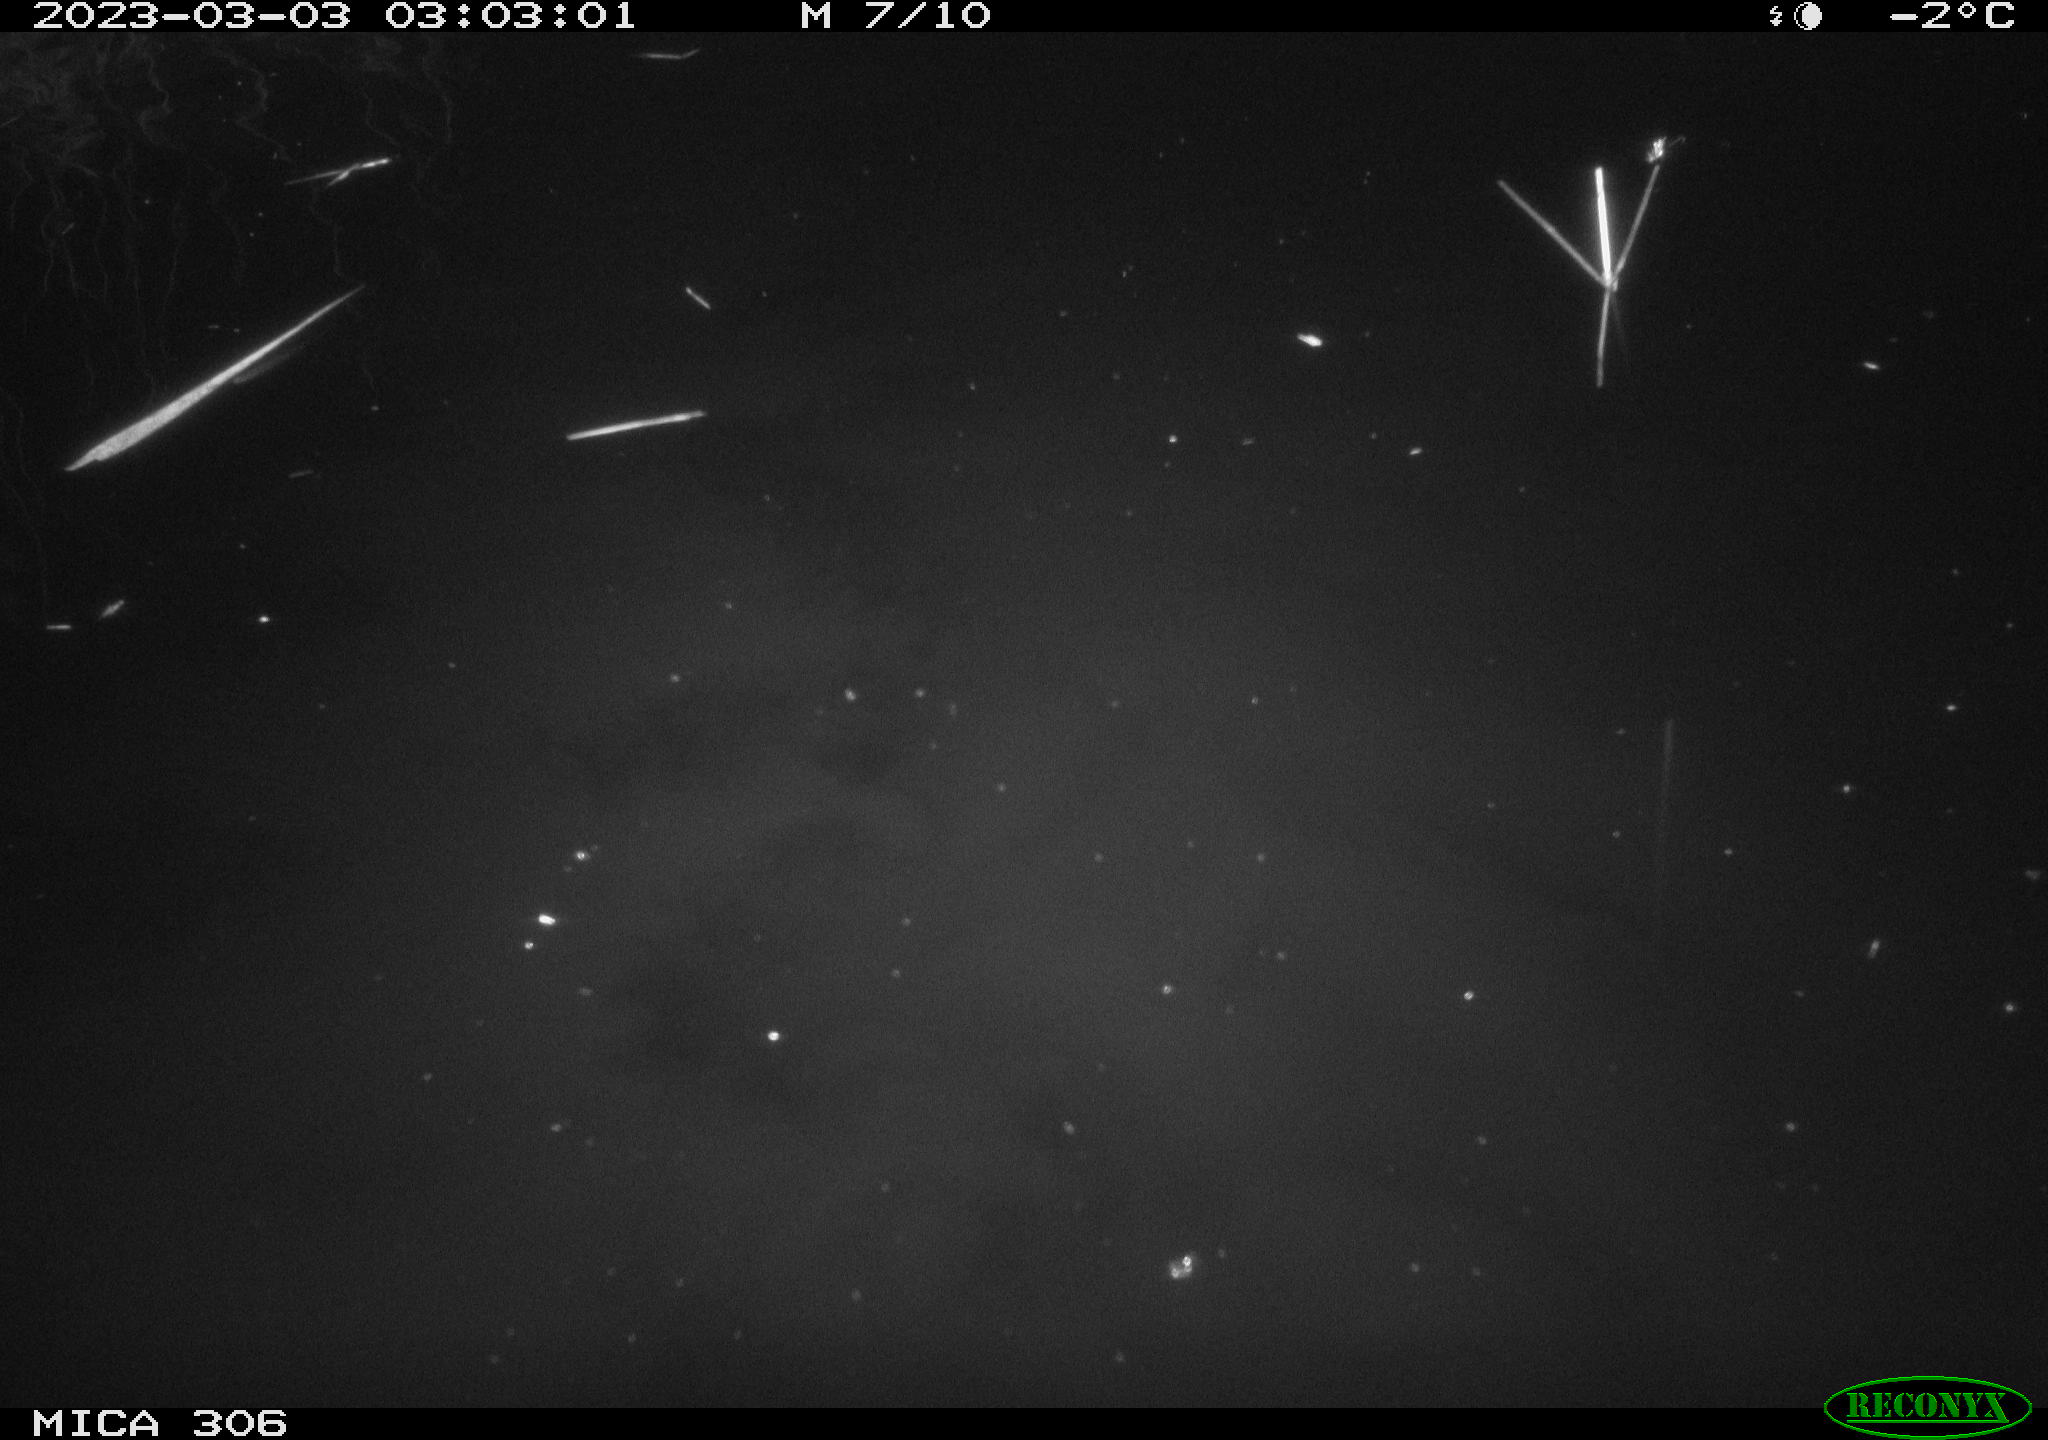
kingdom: Animalia
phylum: Chordata
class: Mammalia
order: Rodentia
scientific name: Rodentia
